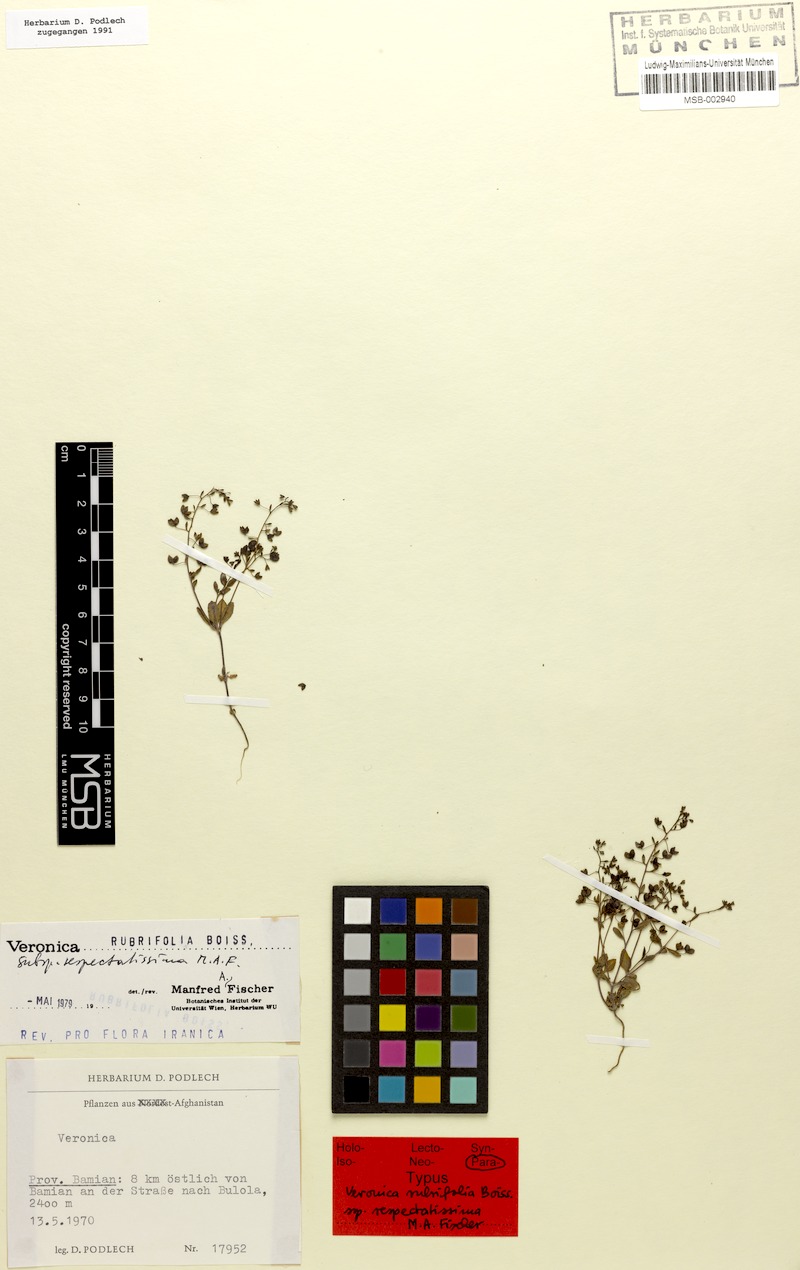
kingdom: Plantae
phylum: Tracheophyta
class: Magnoliopsida
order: Lamiales
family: Plantaginaceae
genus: Veronica
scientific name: Veronica rubrifolia
